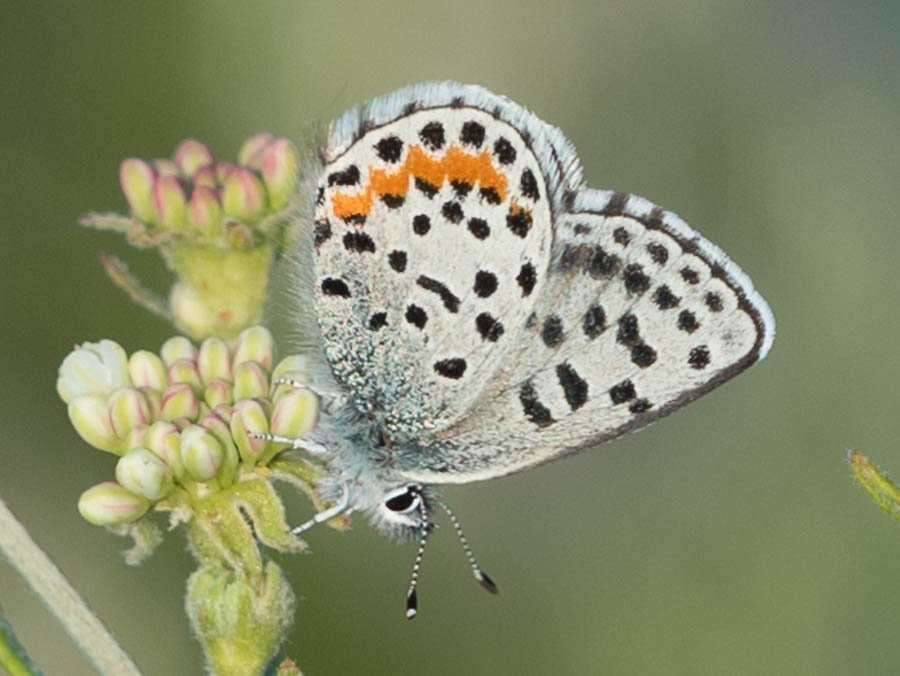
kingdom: Animalia
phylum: Arthropoda
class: Insecta
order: Lepidoptera
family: Lycaenidae
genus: Euphilotes
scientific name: Euphilotes battoides
